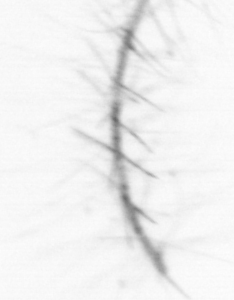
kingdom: Chromista
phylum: Ochrophyta
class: Bacillariophyceae
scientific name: Bacillariophyceae
